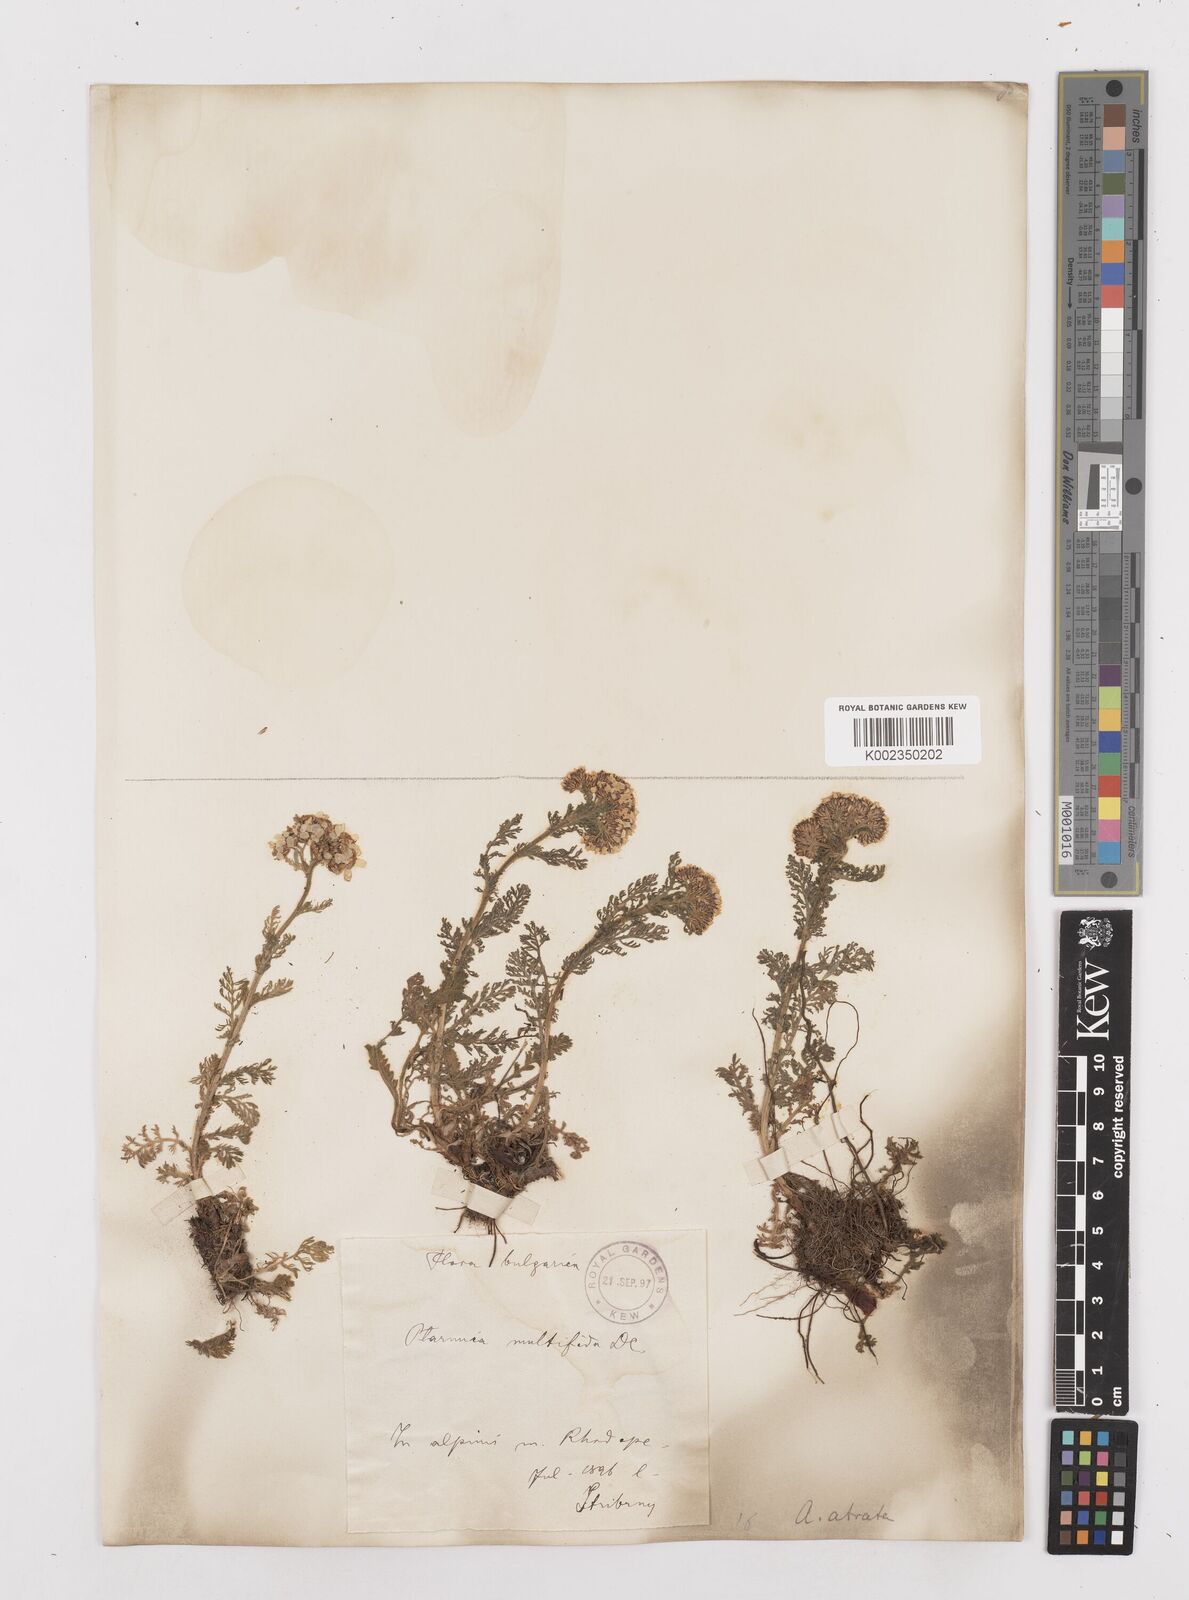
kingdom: Plantae
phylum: Tracheophyta
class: Magnoliopsida
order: Asterales
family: Asteraceae
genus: Achillea
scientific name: Achillea multifida
